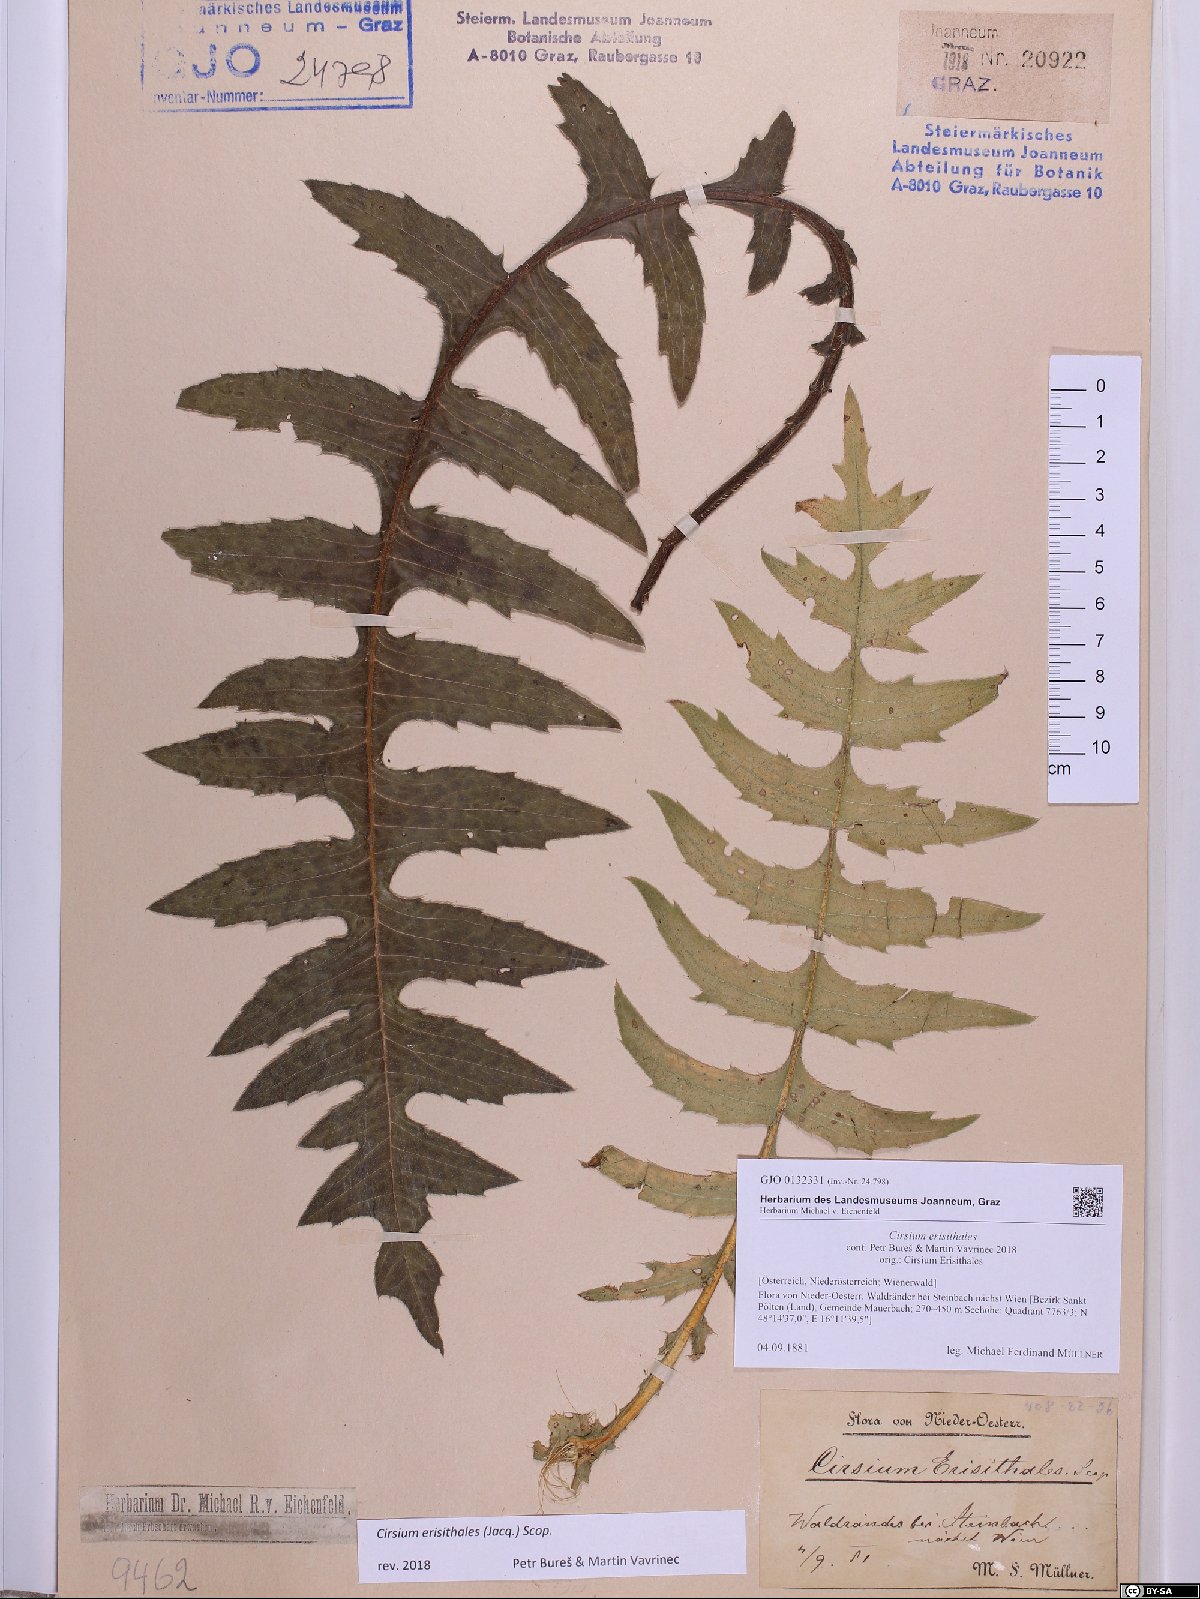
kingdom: Plantae
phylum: Tracheophyta
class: Magnoliopsida
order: Asterales
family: Asteraceae
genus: Cirsium
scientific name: Cirsium erisithales
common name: Yellow thistle
